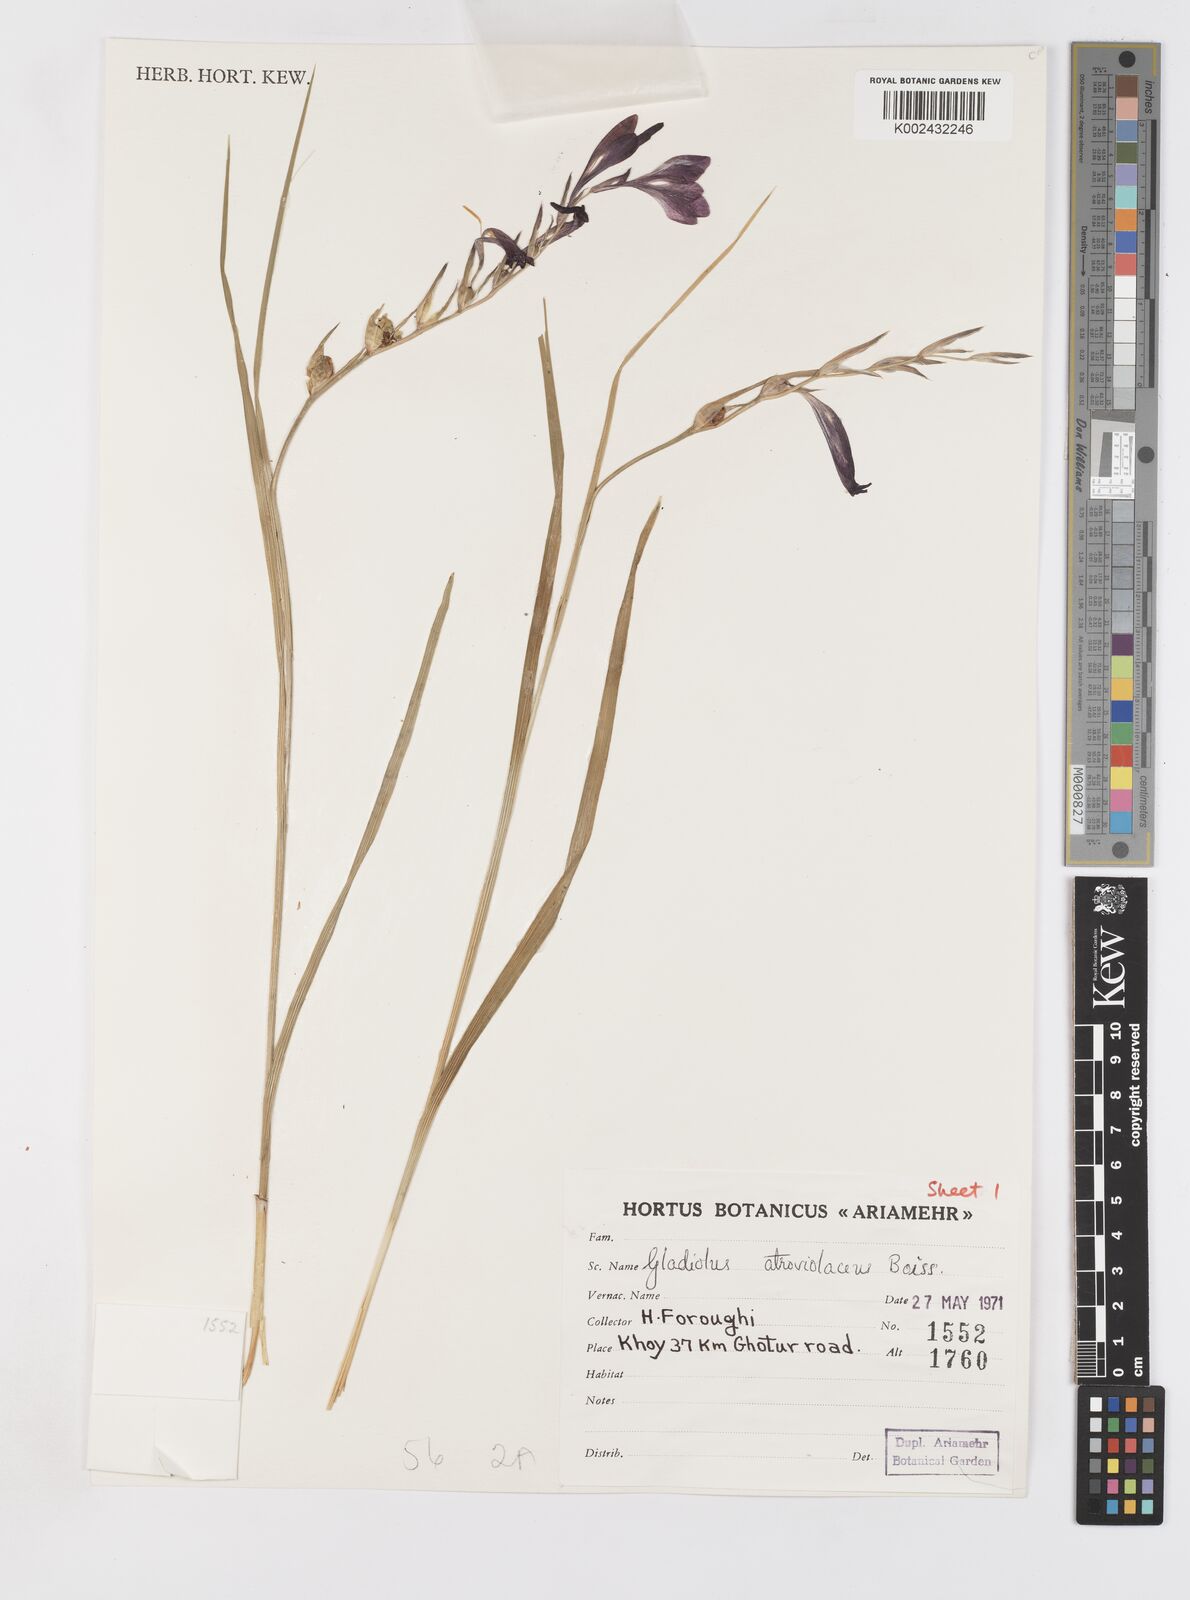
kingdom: Plantae
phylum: Tracheophyta
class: Liliopsida
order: Asparagales
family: Iridaceae
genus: Gladiolus
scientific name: Gladiolus atroviolaceus
